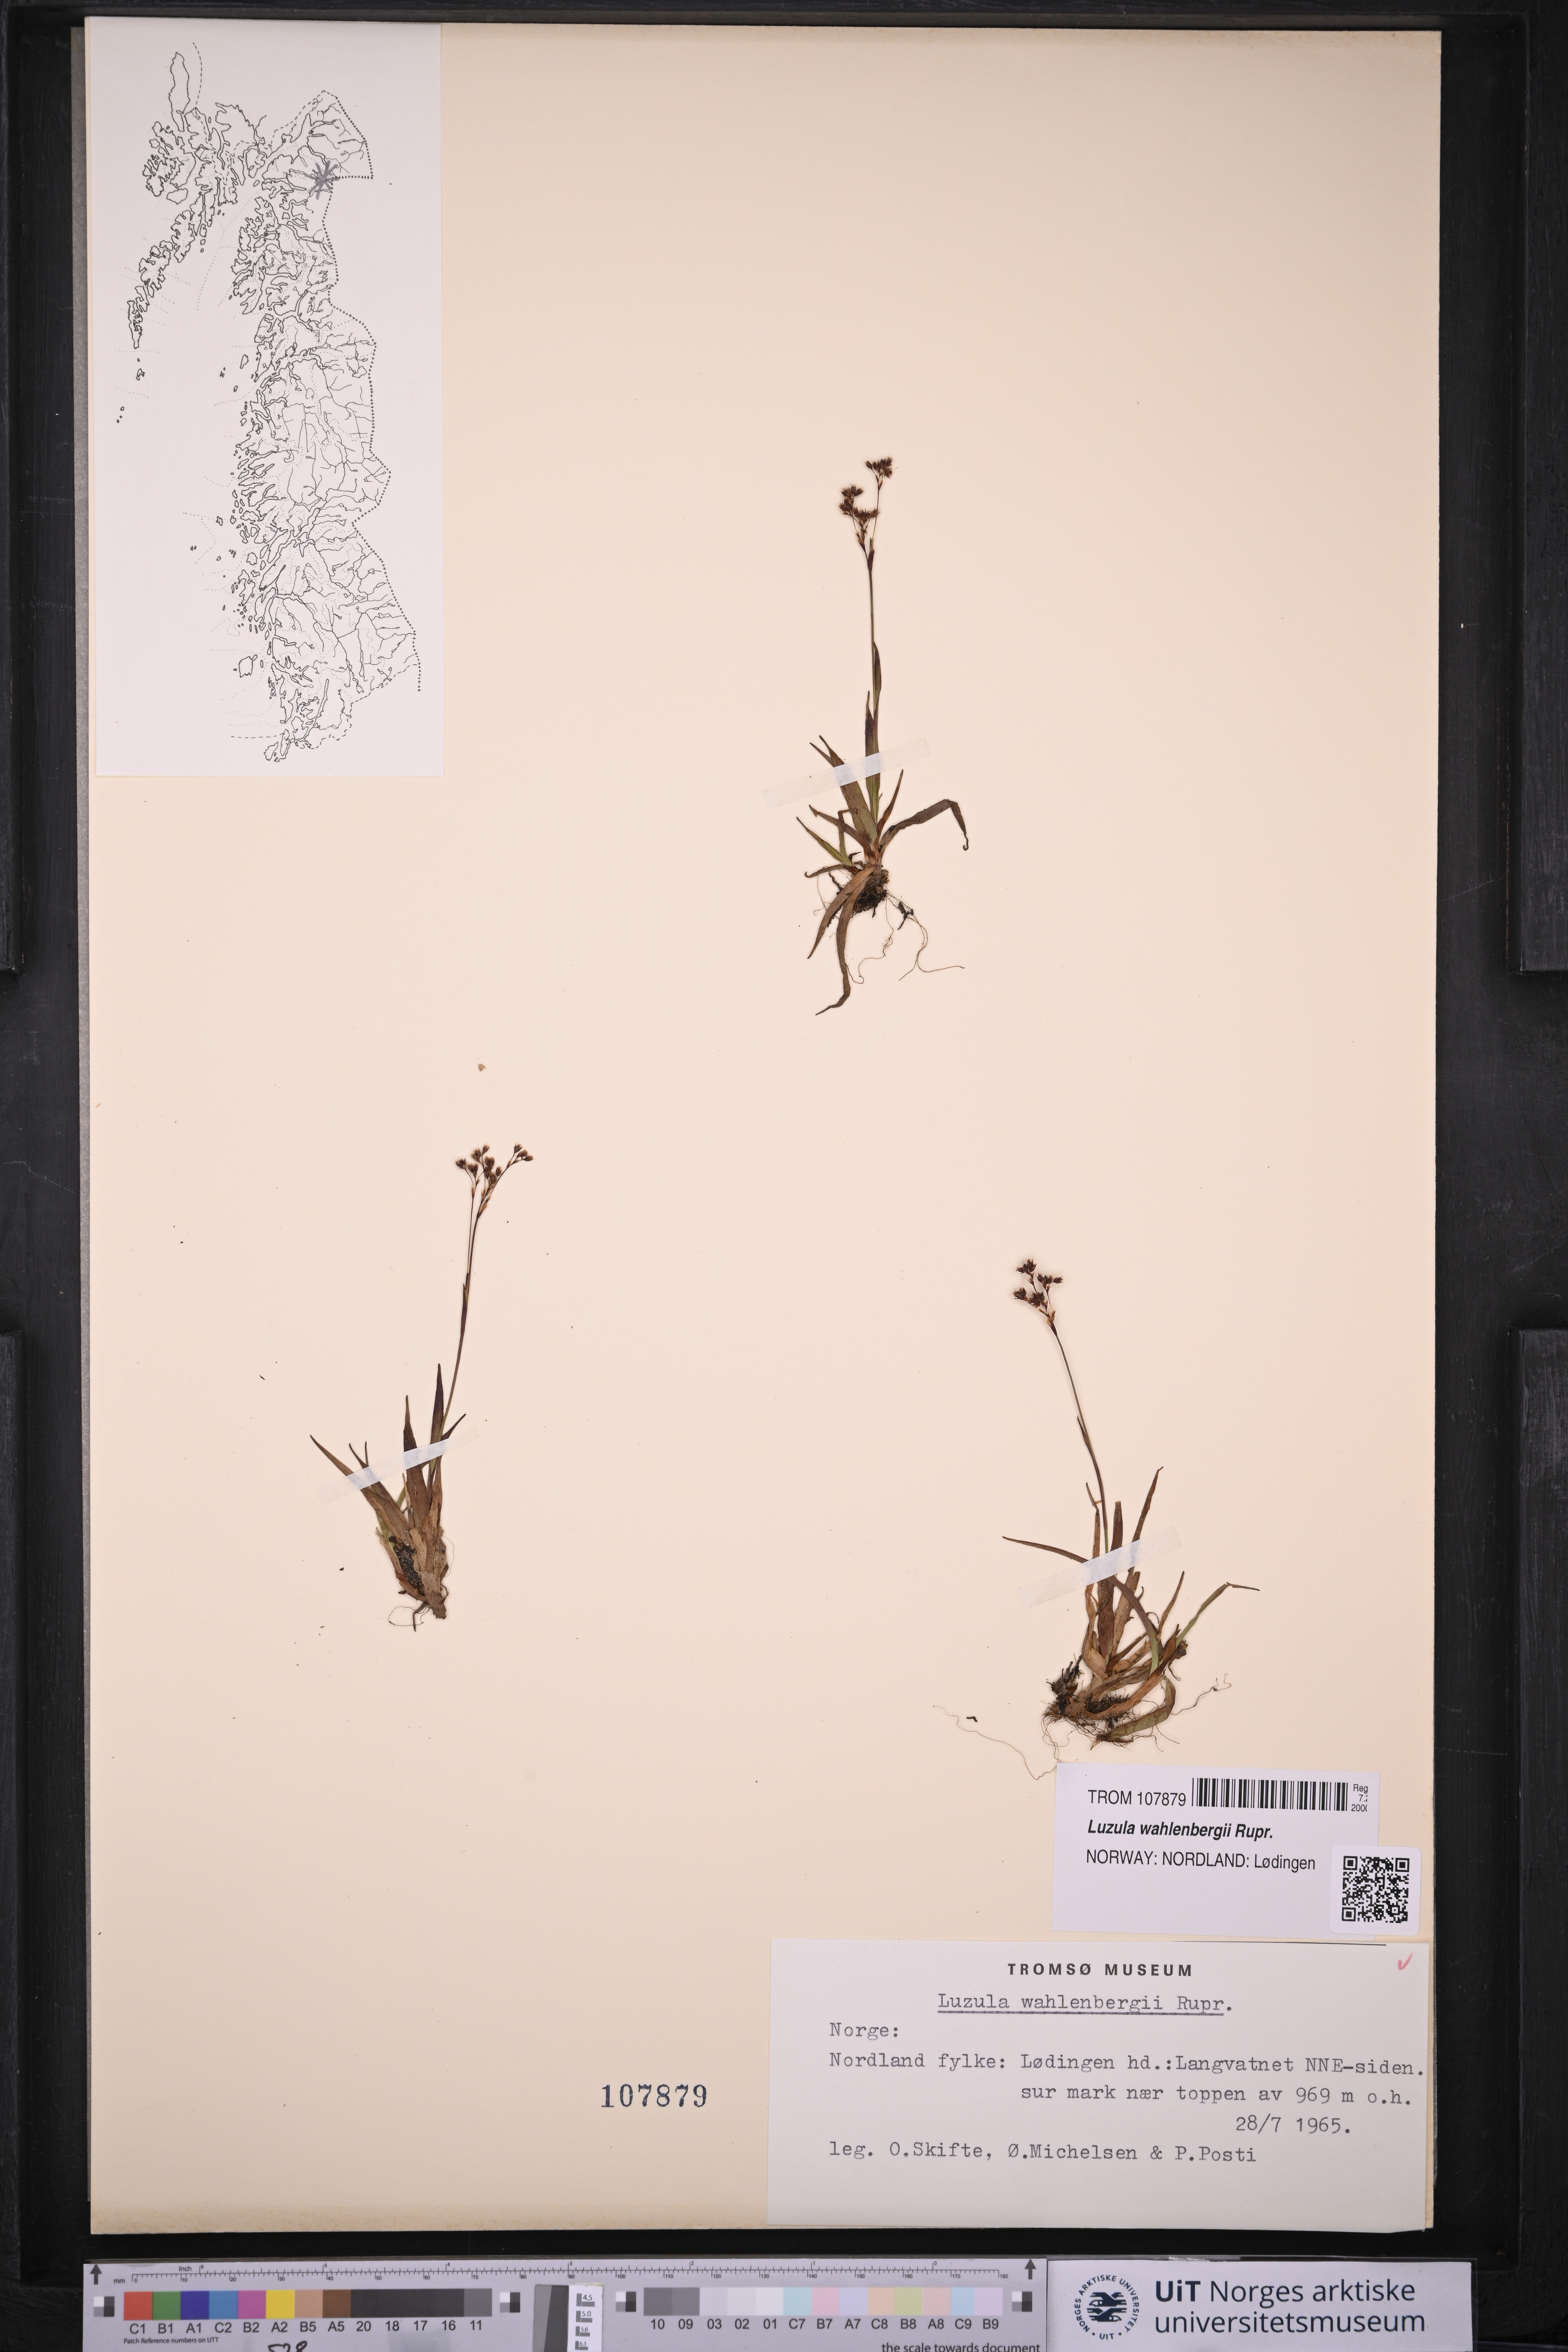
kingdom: Plantae
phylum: Tracheophyta
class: Liliopsida
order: Poales
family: Juncaceae
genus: Luzula
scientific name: Luzula wahlenbergii
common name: Wahlenberg's wood-rush
